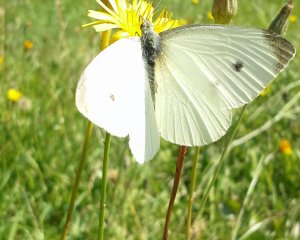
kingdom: Animalia
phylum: Arthropoda
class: Insecta
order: Lepidoptera
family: Pieridae
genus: Pieris
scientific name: Pieris rapae
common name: Cabbage White
